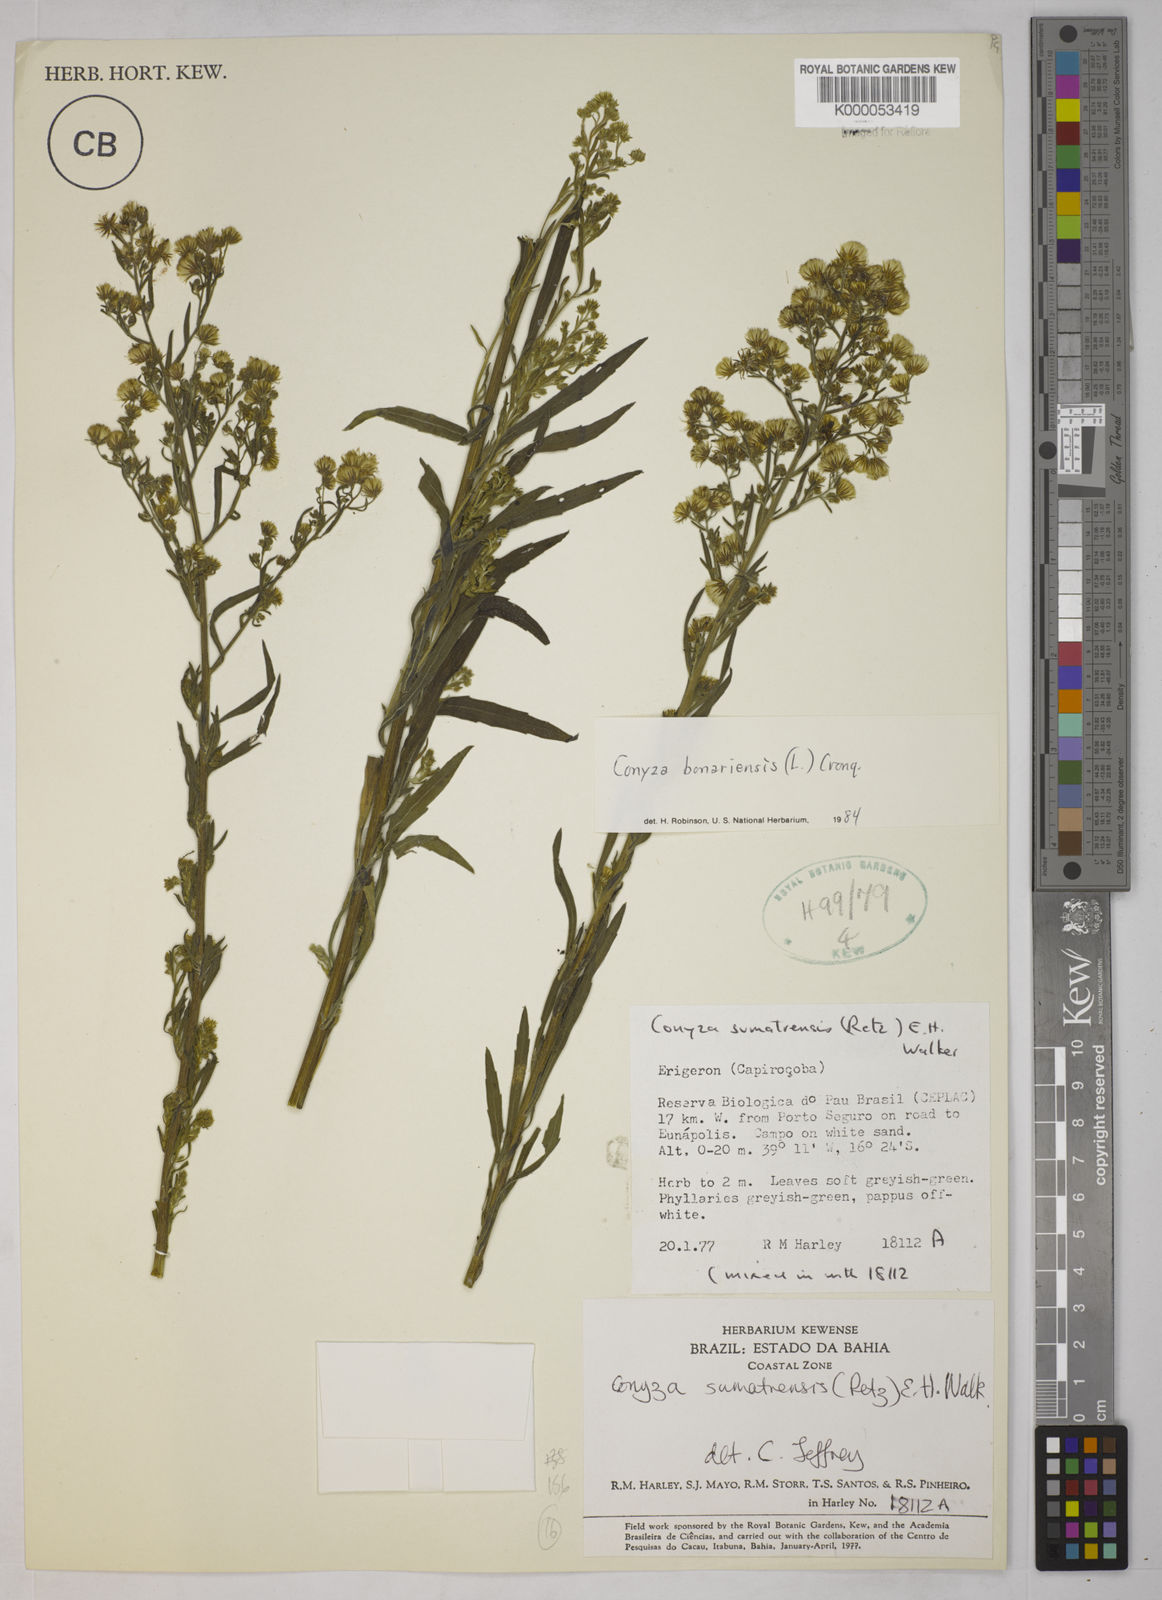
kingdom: Plantae
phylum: Tracheophyta
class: Magnoliopsida
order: Asterales
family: Asteraceae
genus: Erigeron
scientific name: Erigeron sumatrensis
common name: Daisy
